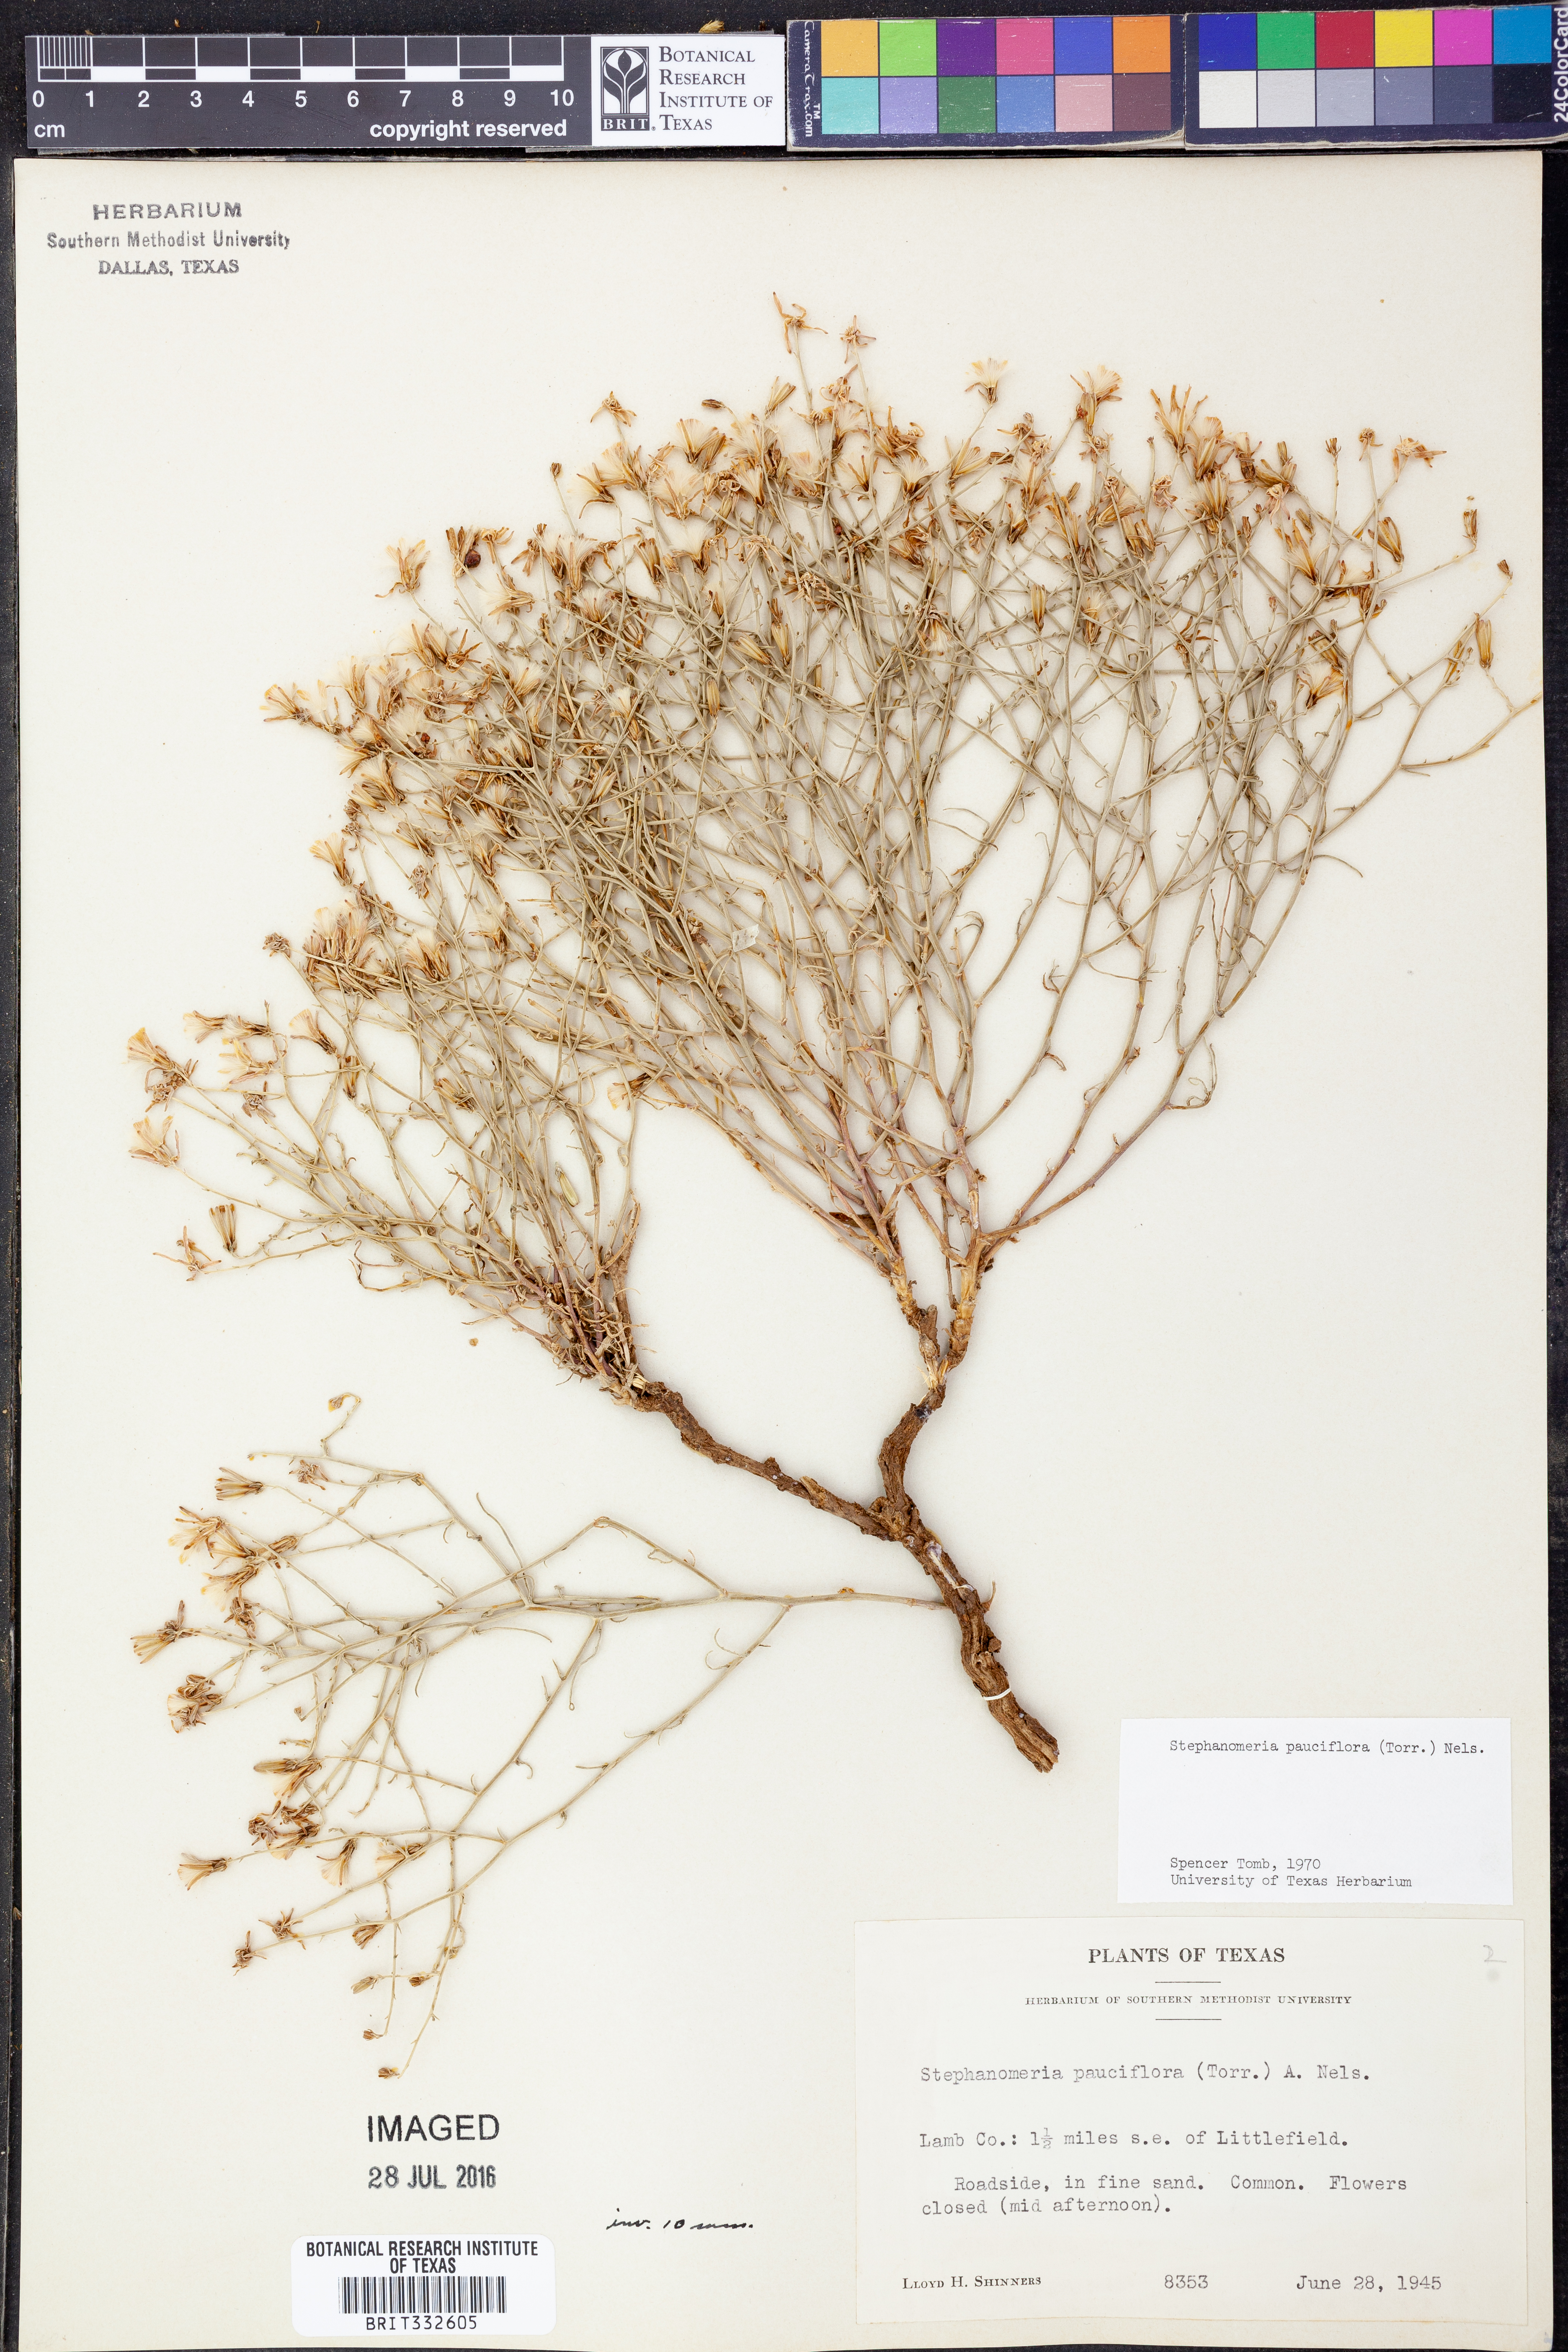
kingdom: Plantae
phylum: Tracheophyta
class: Magnoliopsida
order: Asterales
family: Asteraceae
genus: Stephanomeria
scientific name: Stephanomeria pauciflora
